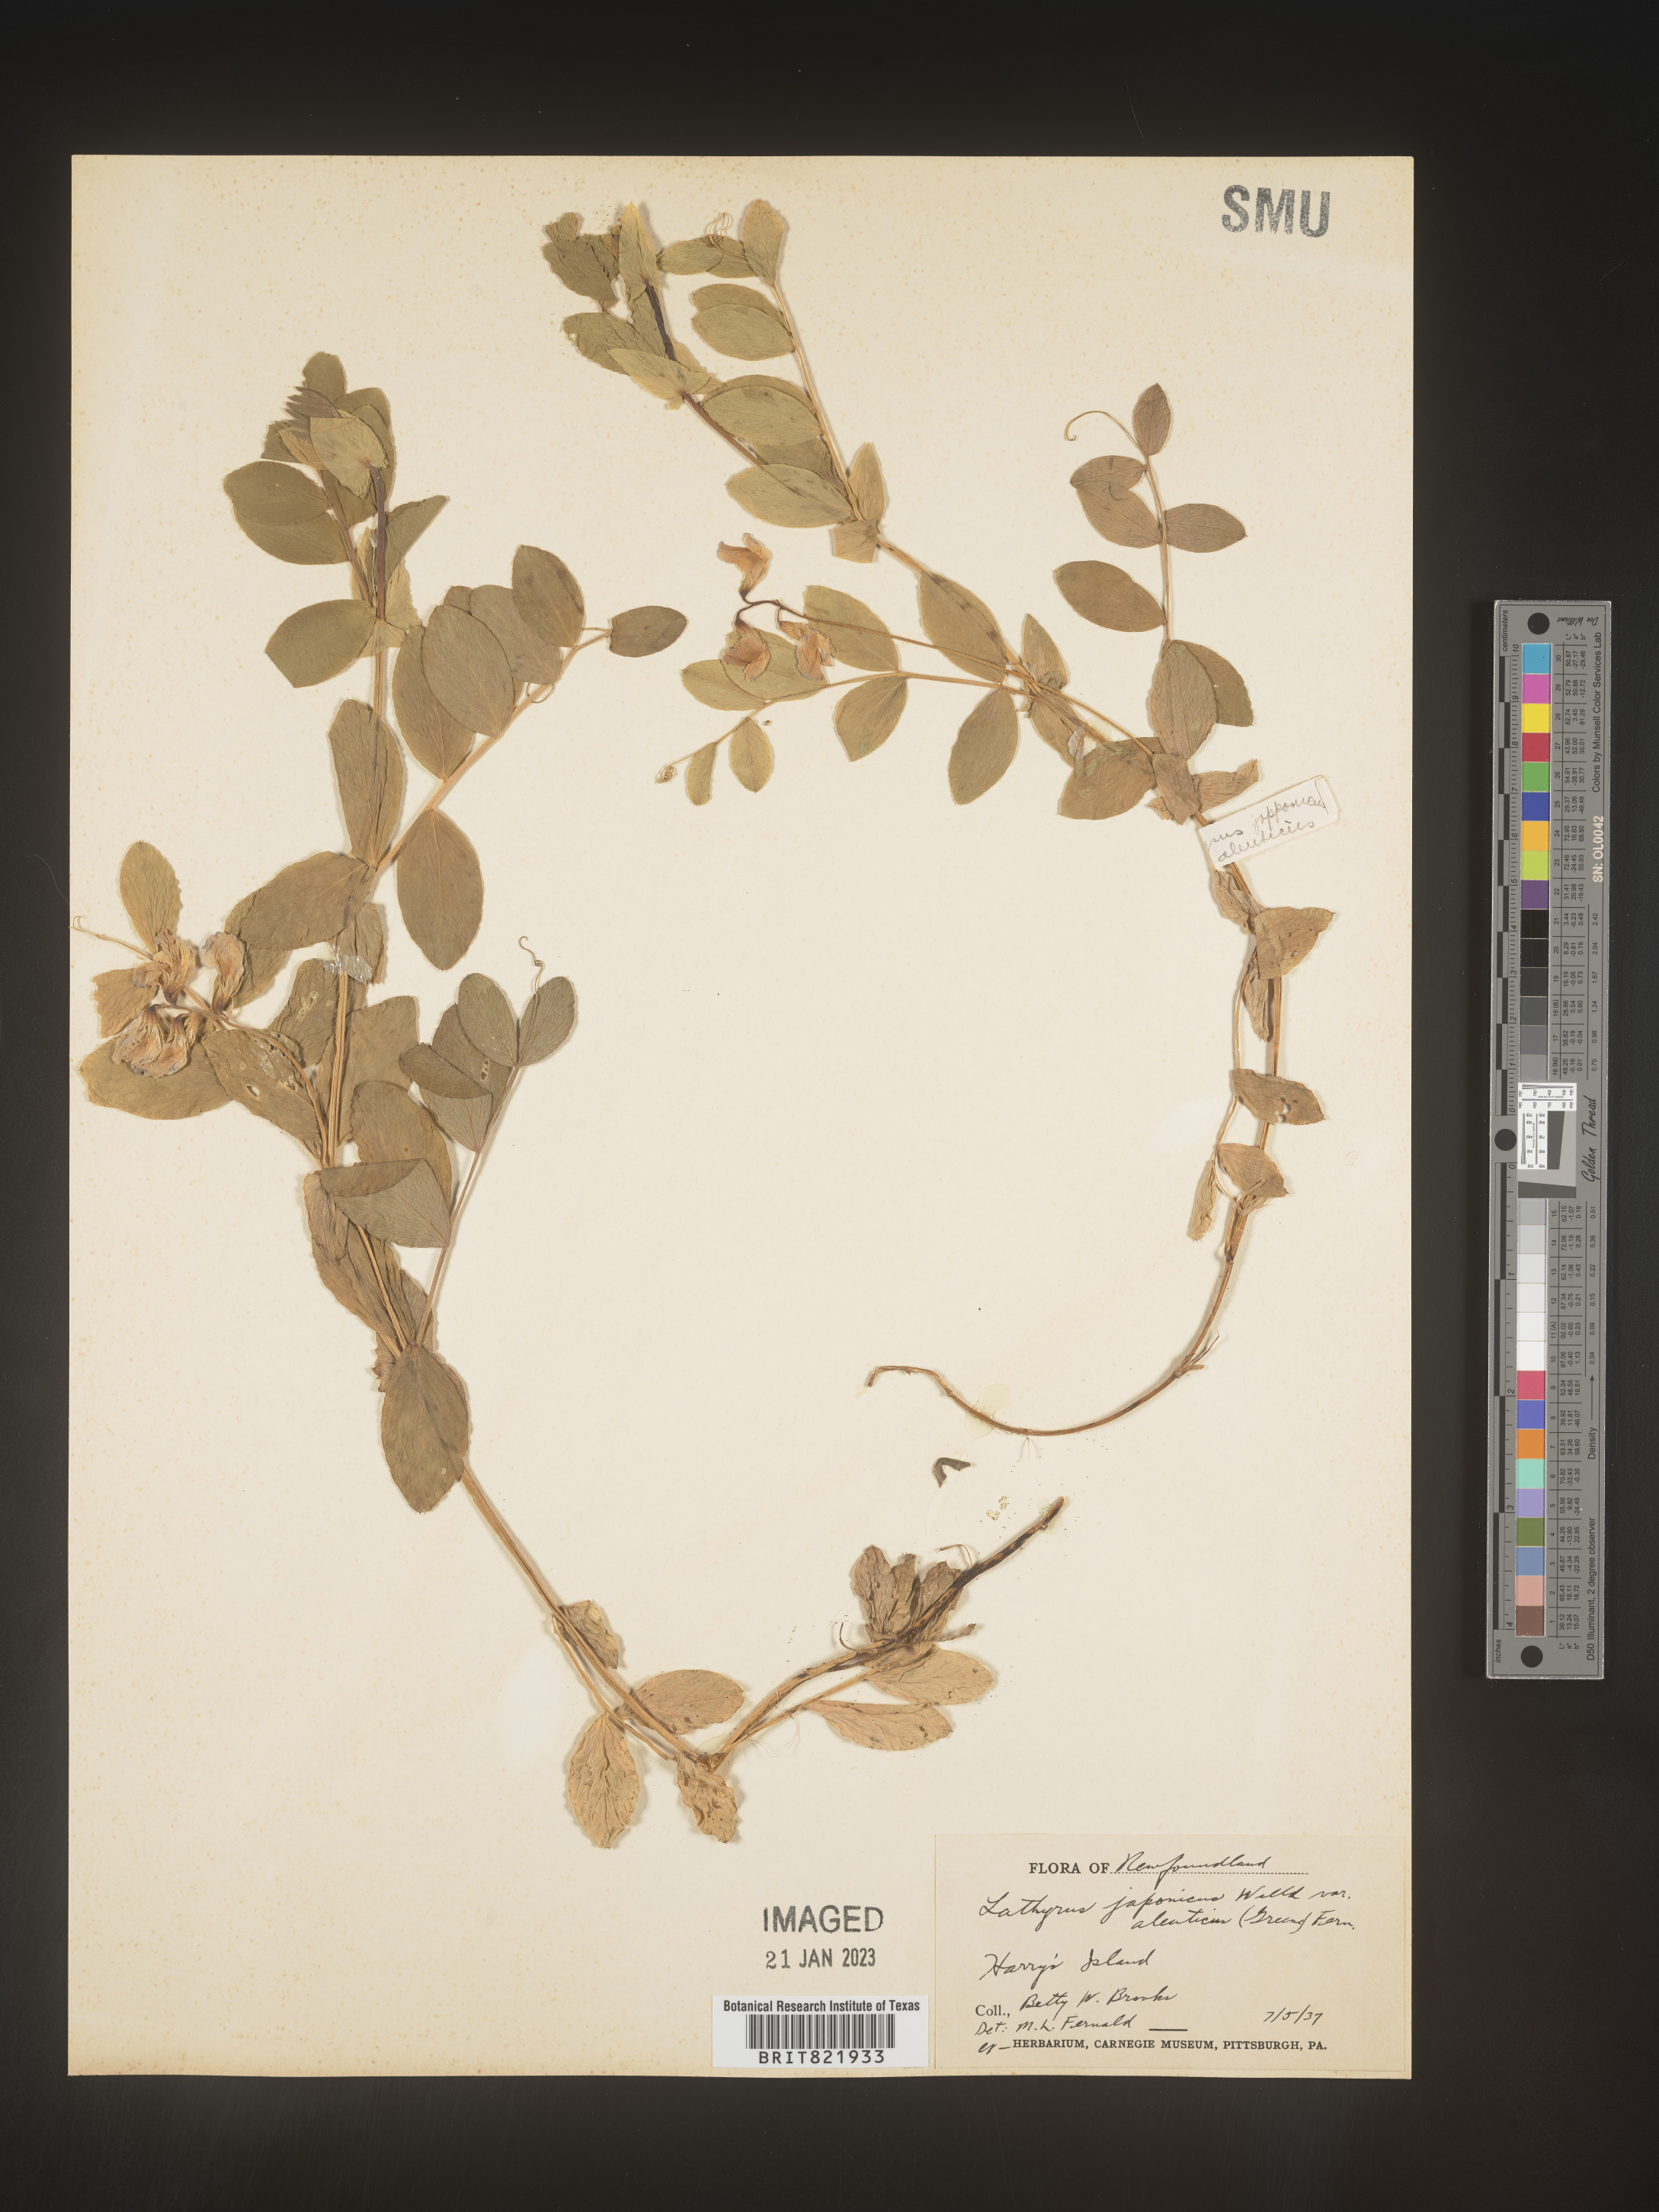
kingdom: Plantae
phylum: Tracheophyta
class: Magnoliopsida
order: Fabales
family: Fabaceae
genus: Lathyrus
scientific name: Lathyrus
